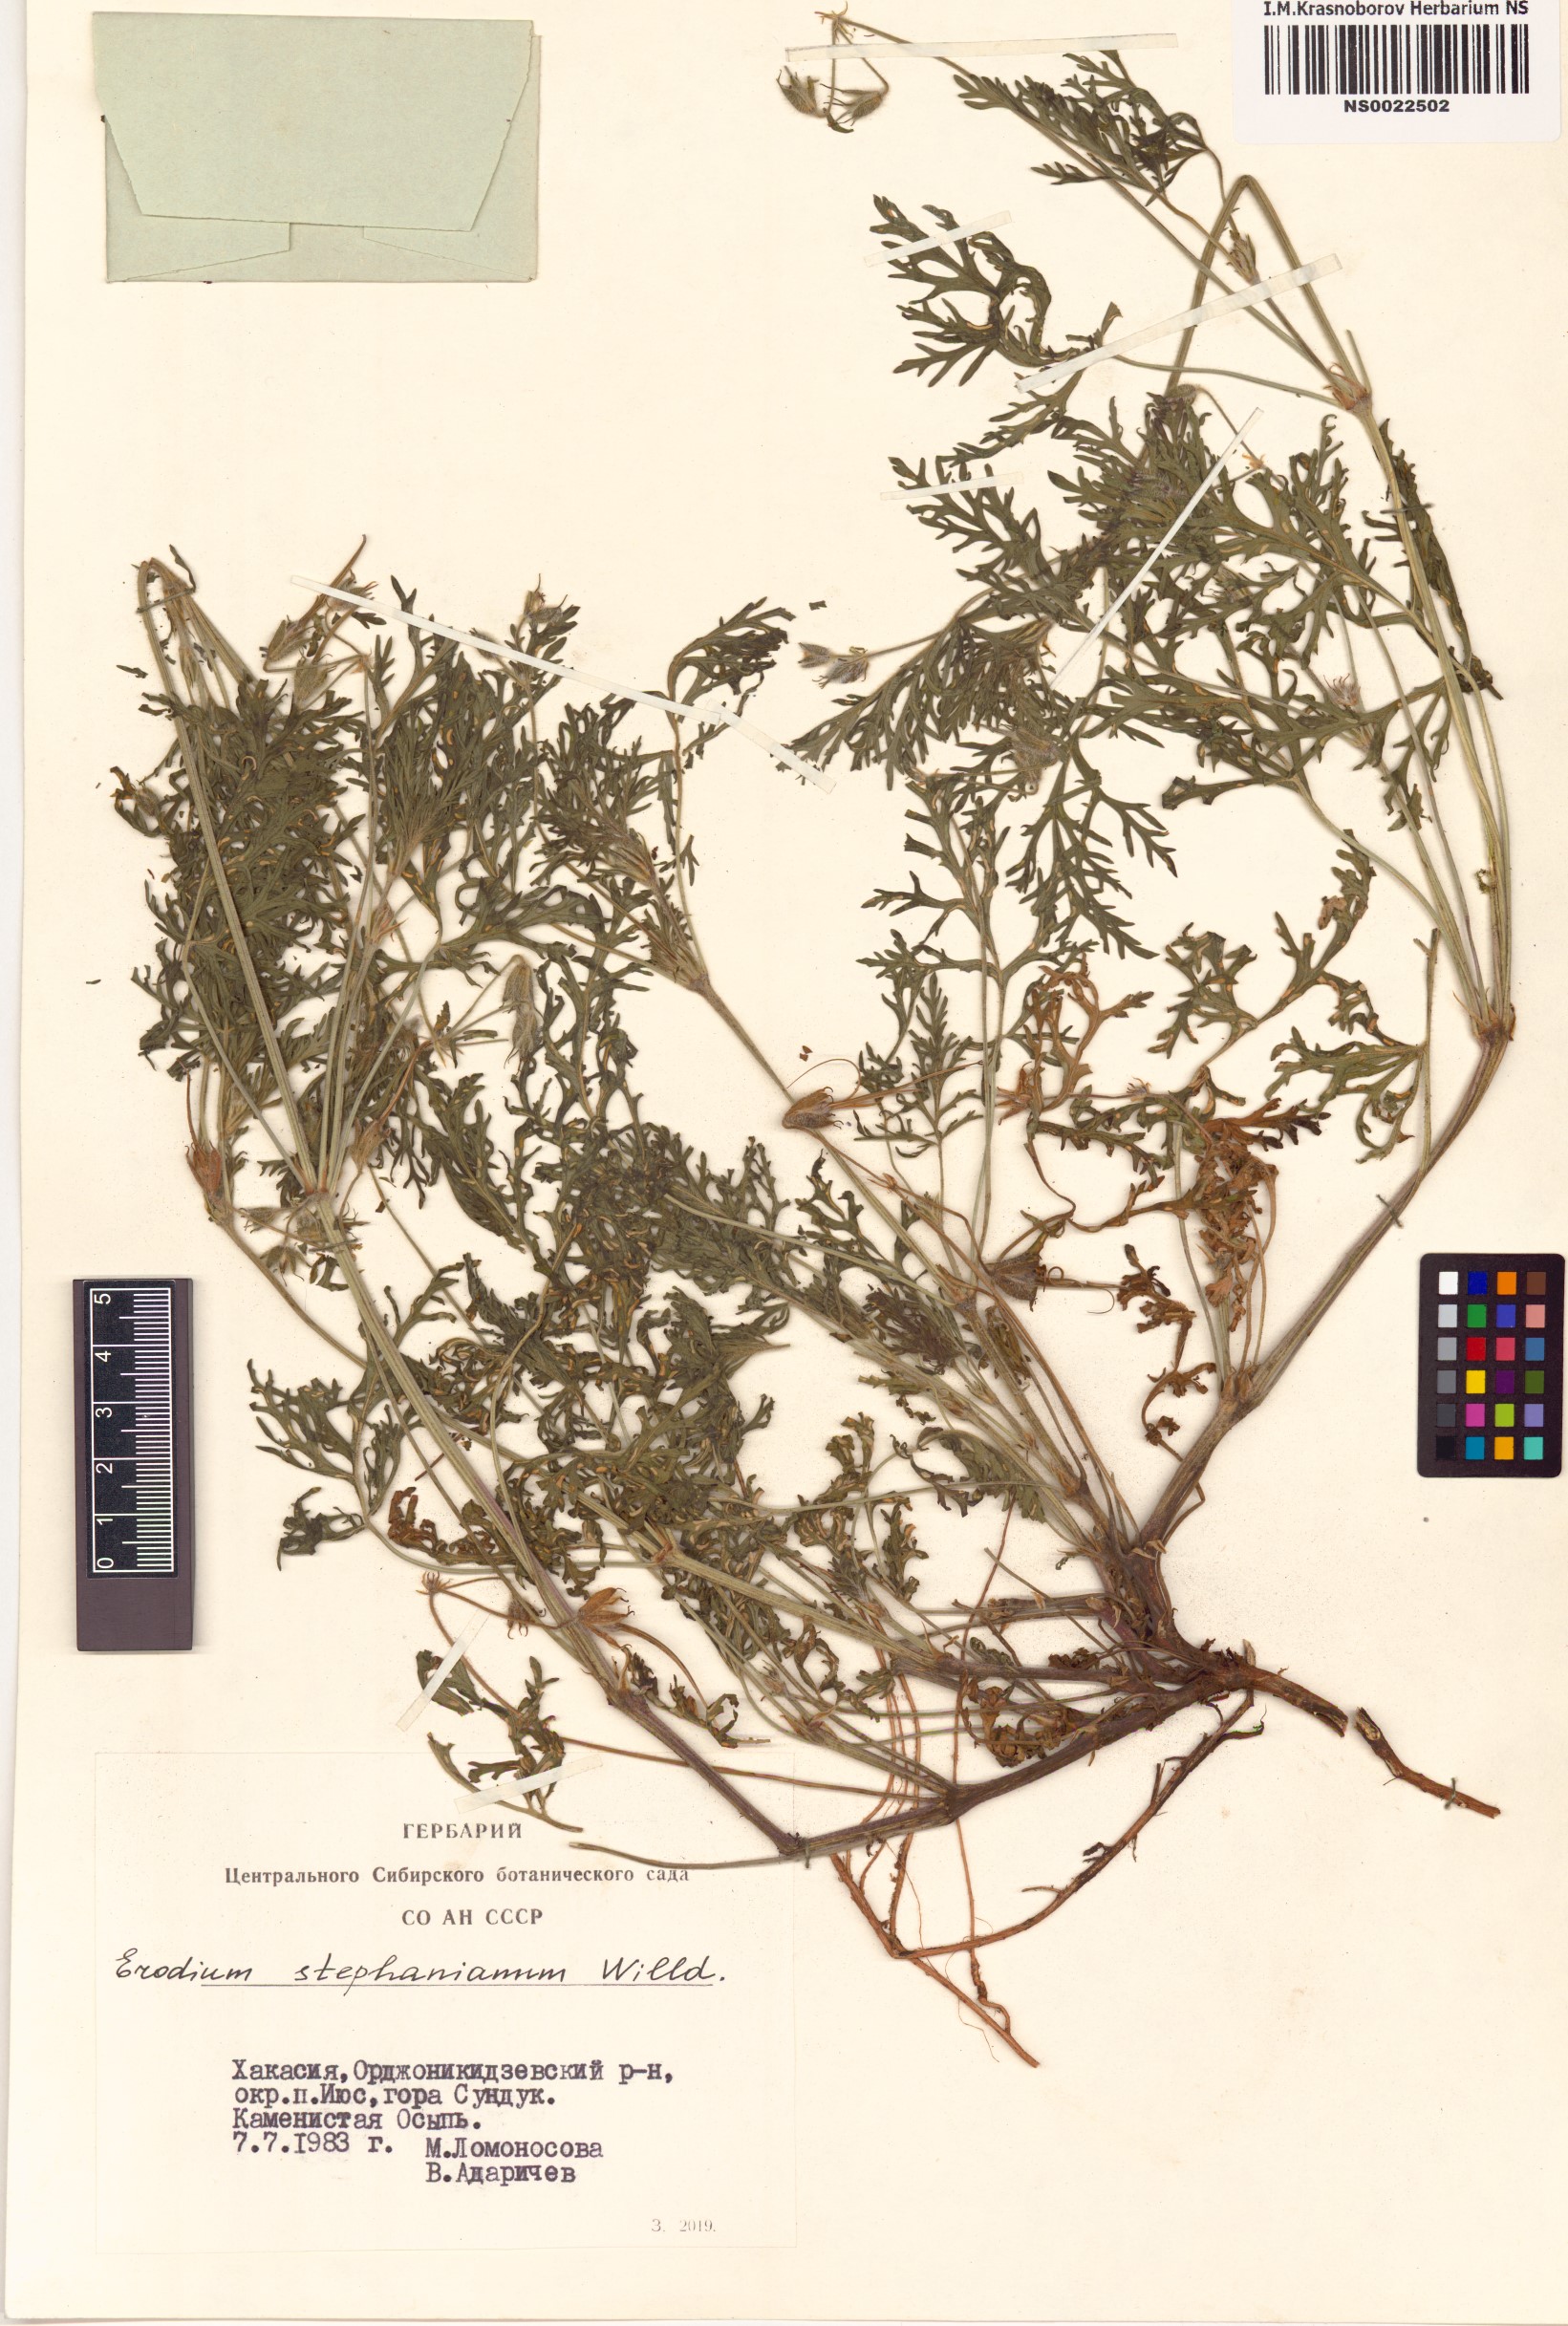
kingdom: Plantae
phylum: Tracheophyta
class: Magnoliopsida
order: Geraniales
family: Geraniaceae
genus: Erodium
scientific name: Erodium stephanianum
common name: Stephen's stork's bill
